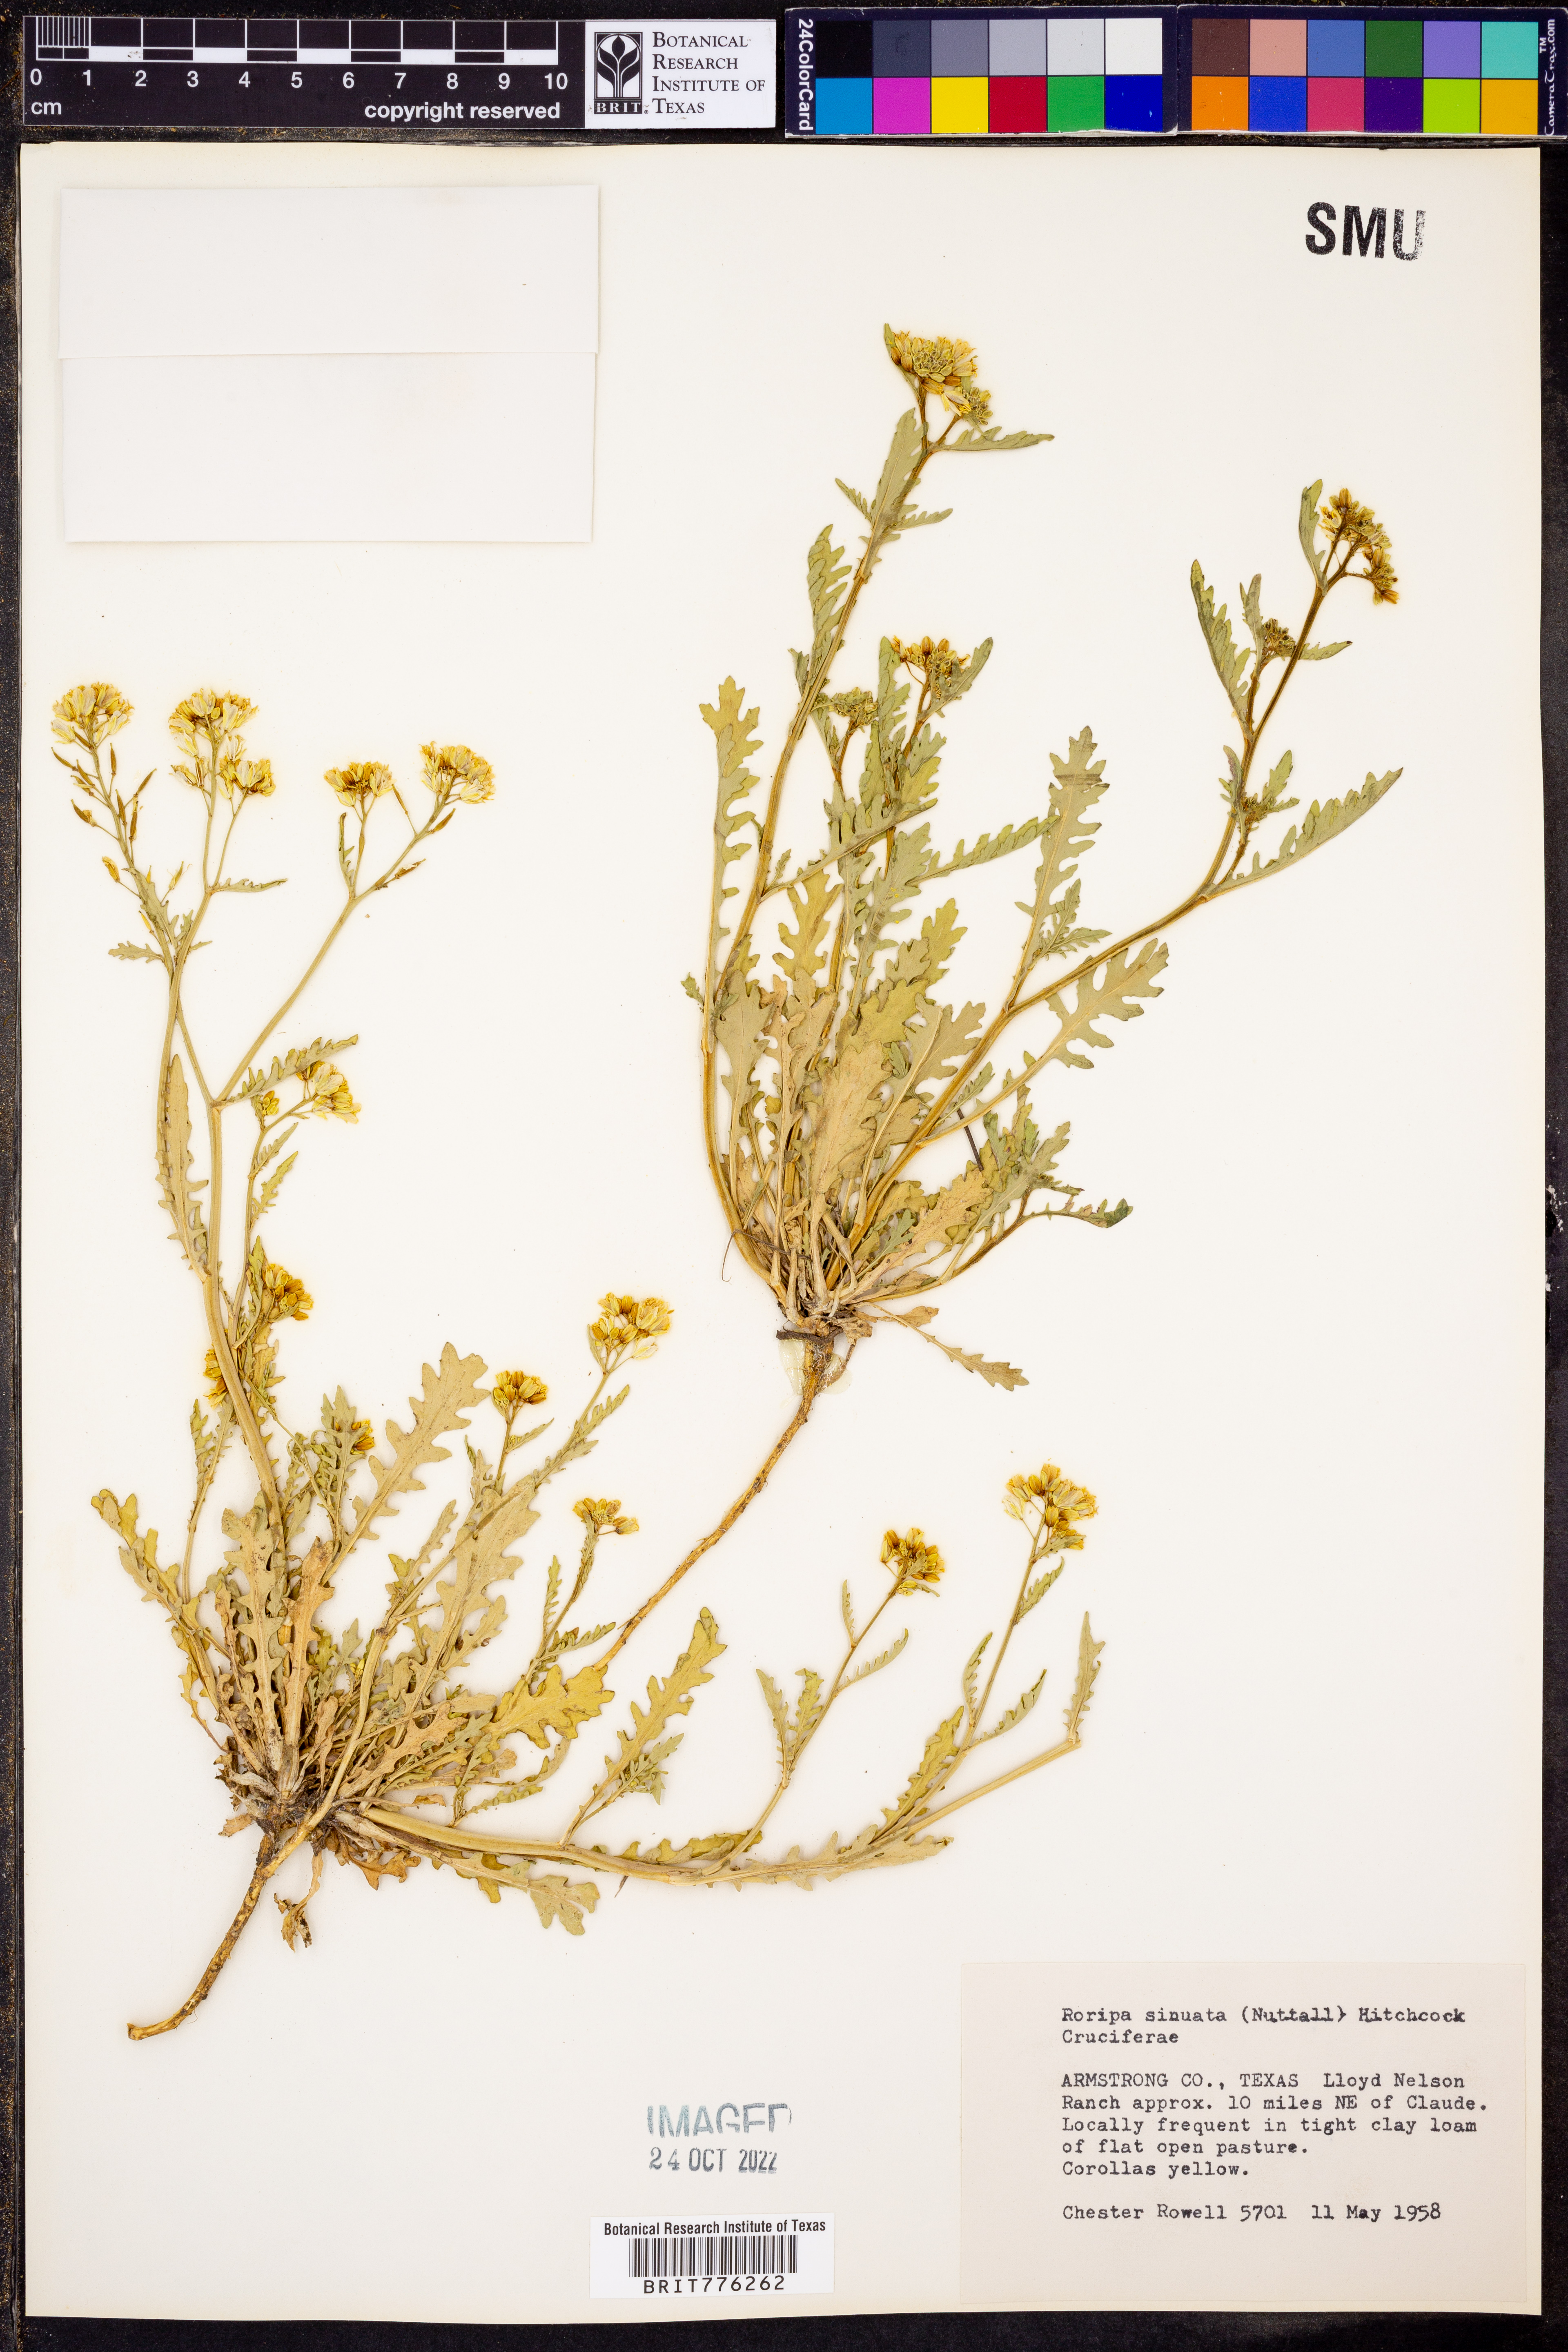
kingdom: Plantae
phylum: Tracheophyta
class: Magnoliopsida
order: Brassicales
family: Brassicaceae
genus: Rorippa
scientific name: Rorippa sinuata
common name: Spread yellow cress
